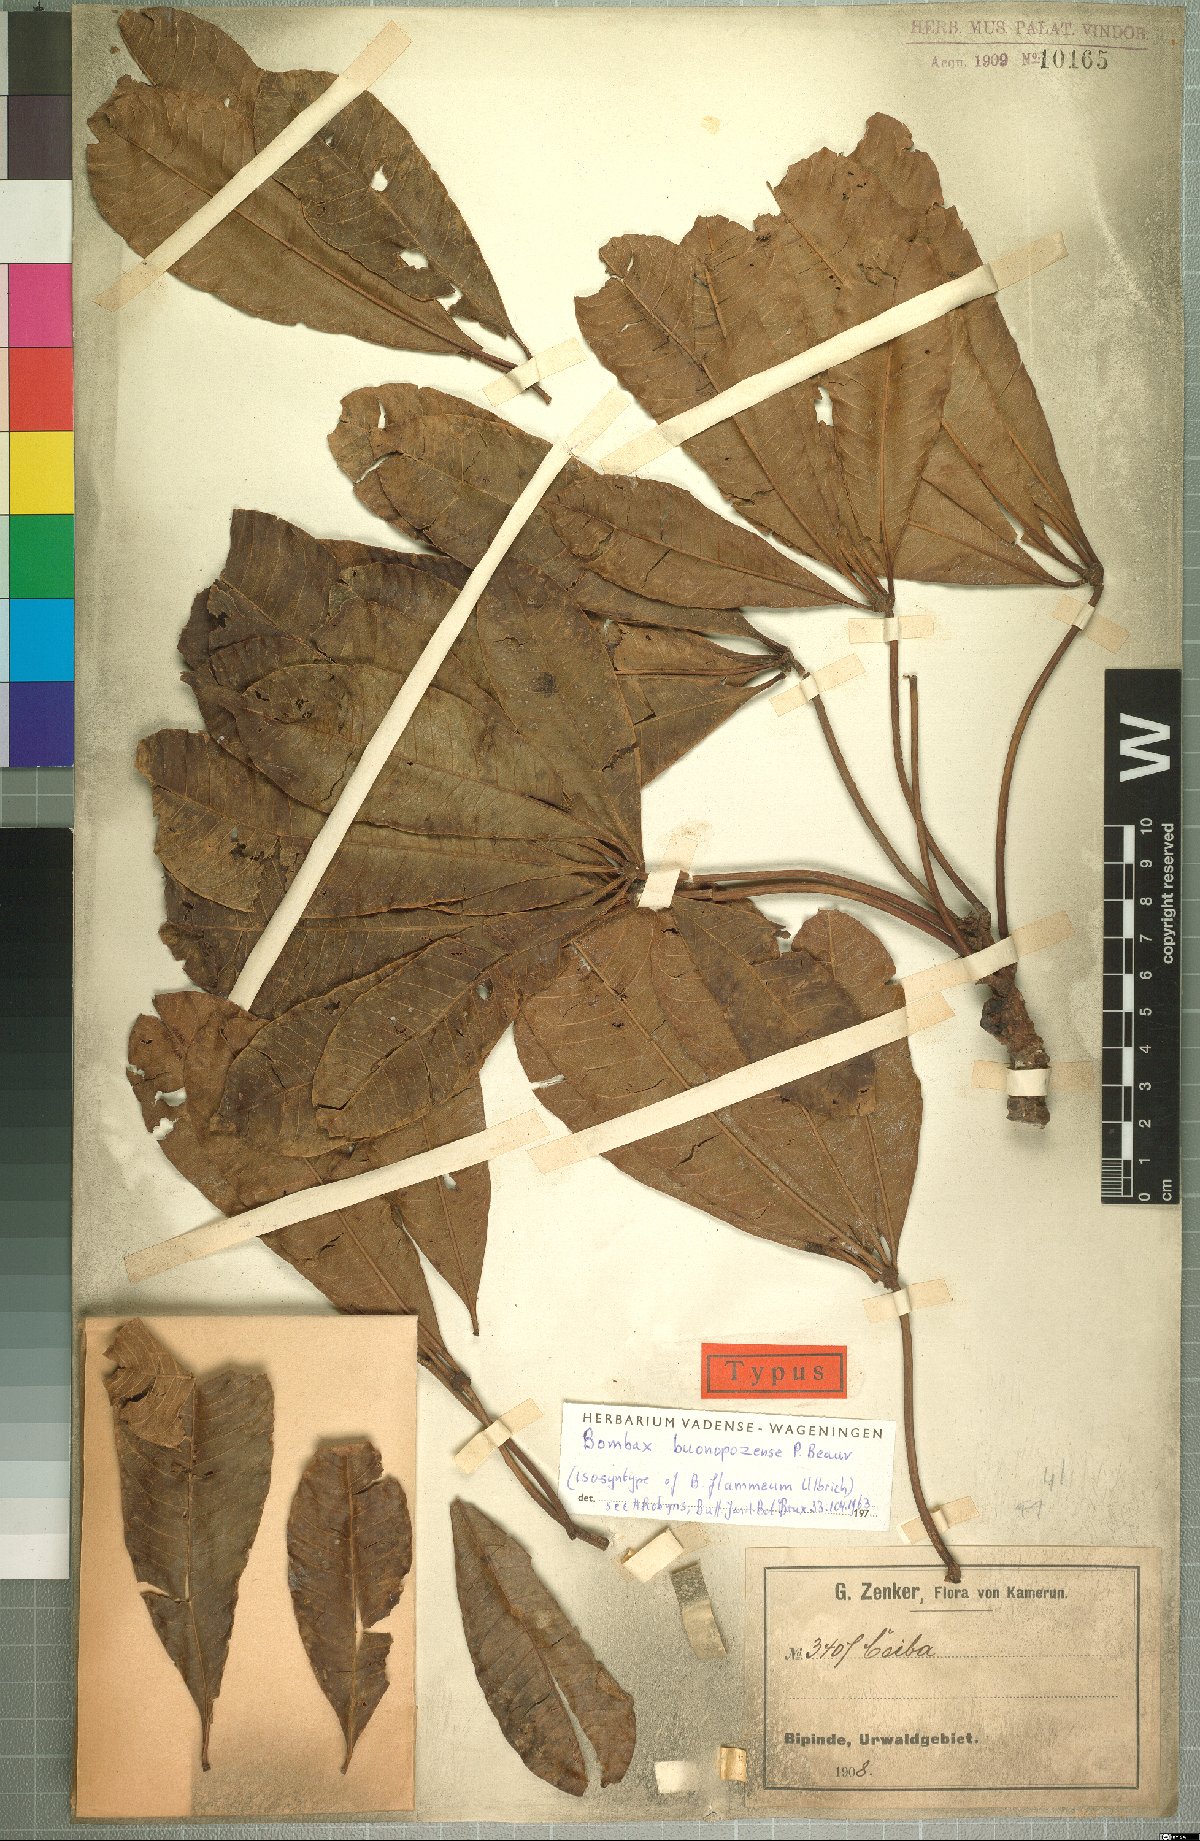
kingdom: Plantae
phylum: Tracheophyta
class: Magnoliopsida
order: Malvales
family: Malvaceae
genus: Bombax
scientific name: Bombax buonopozense
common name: Gold coast bombax
